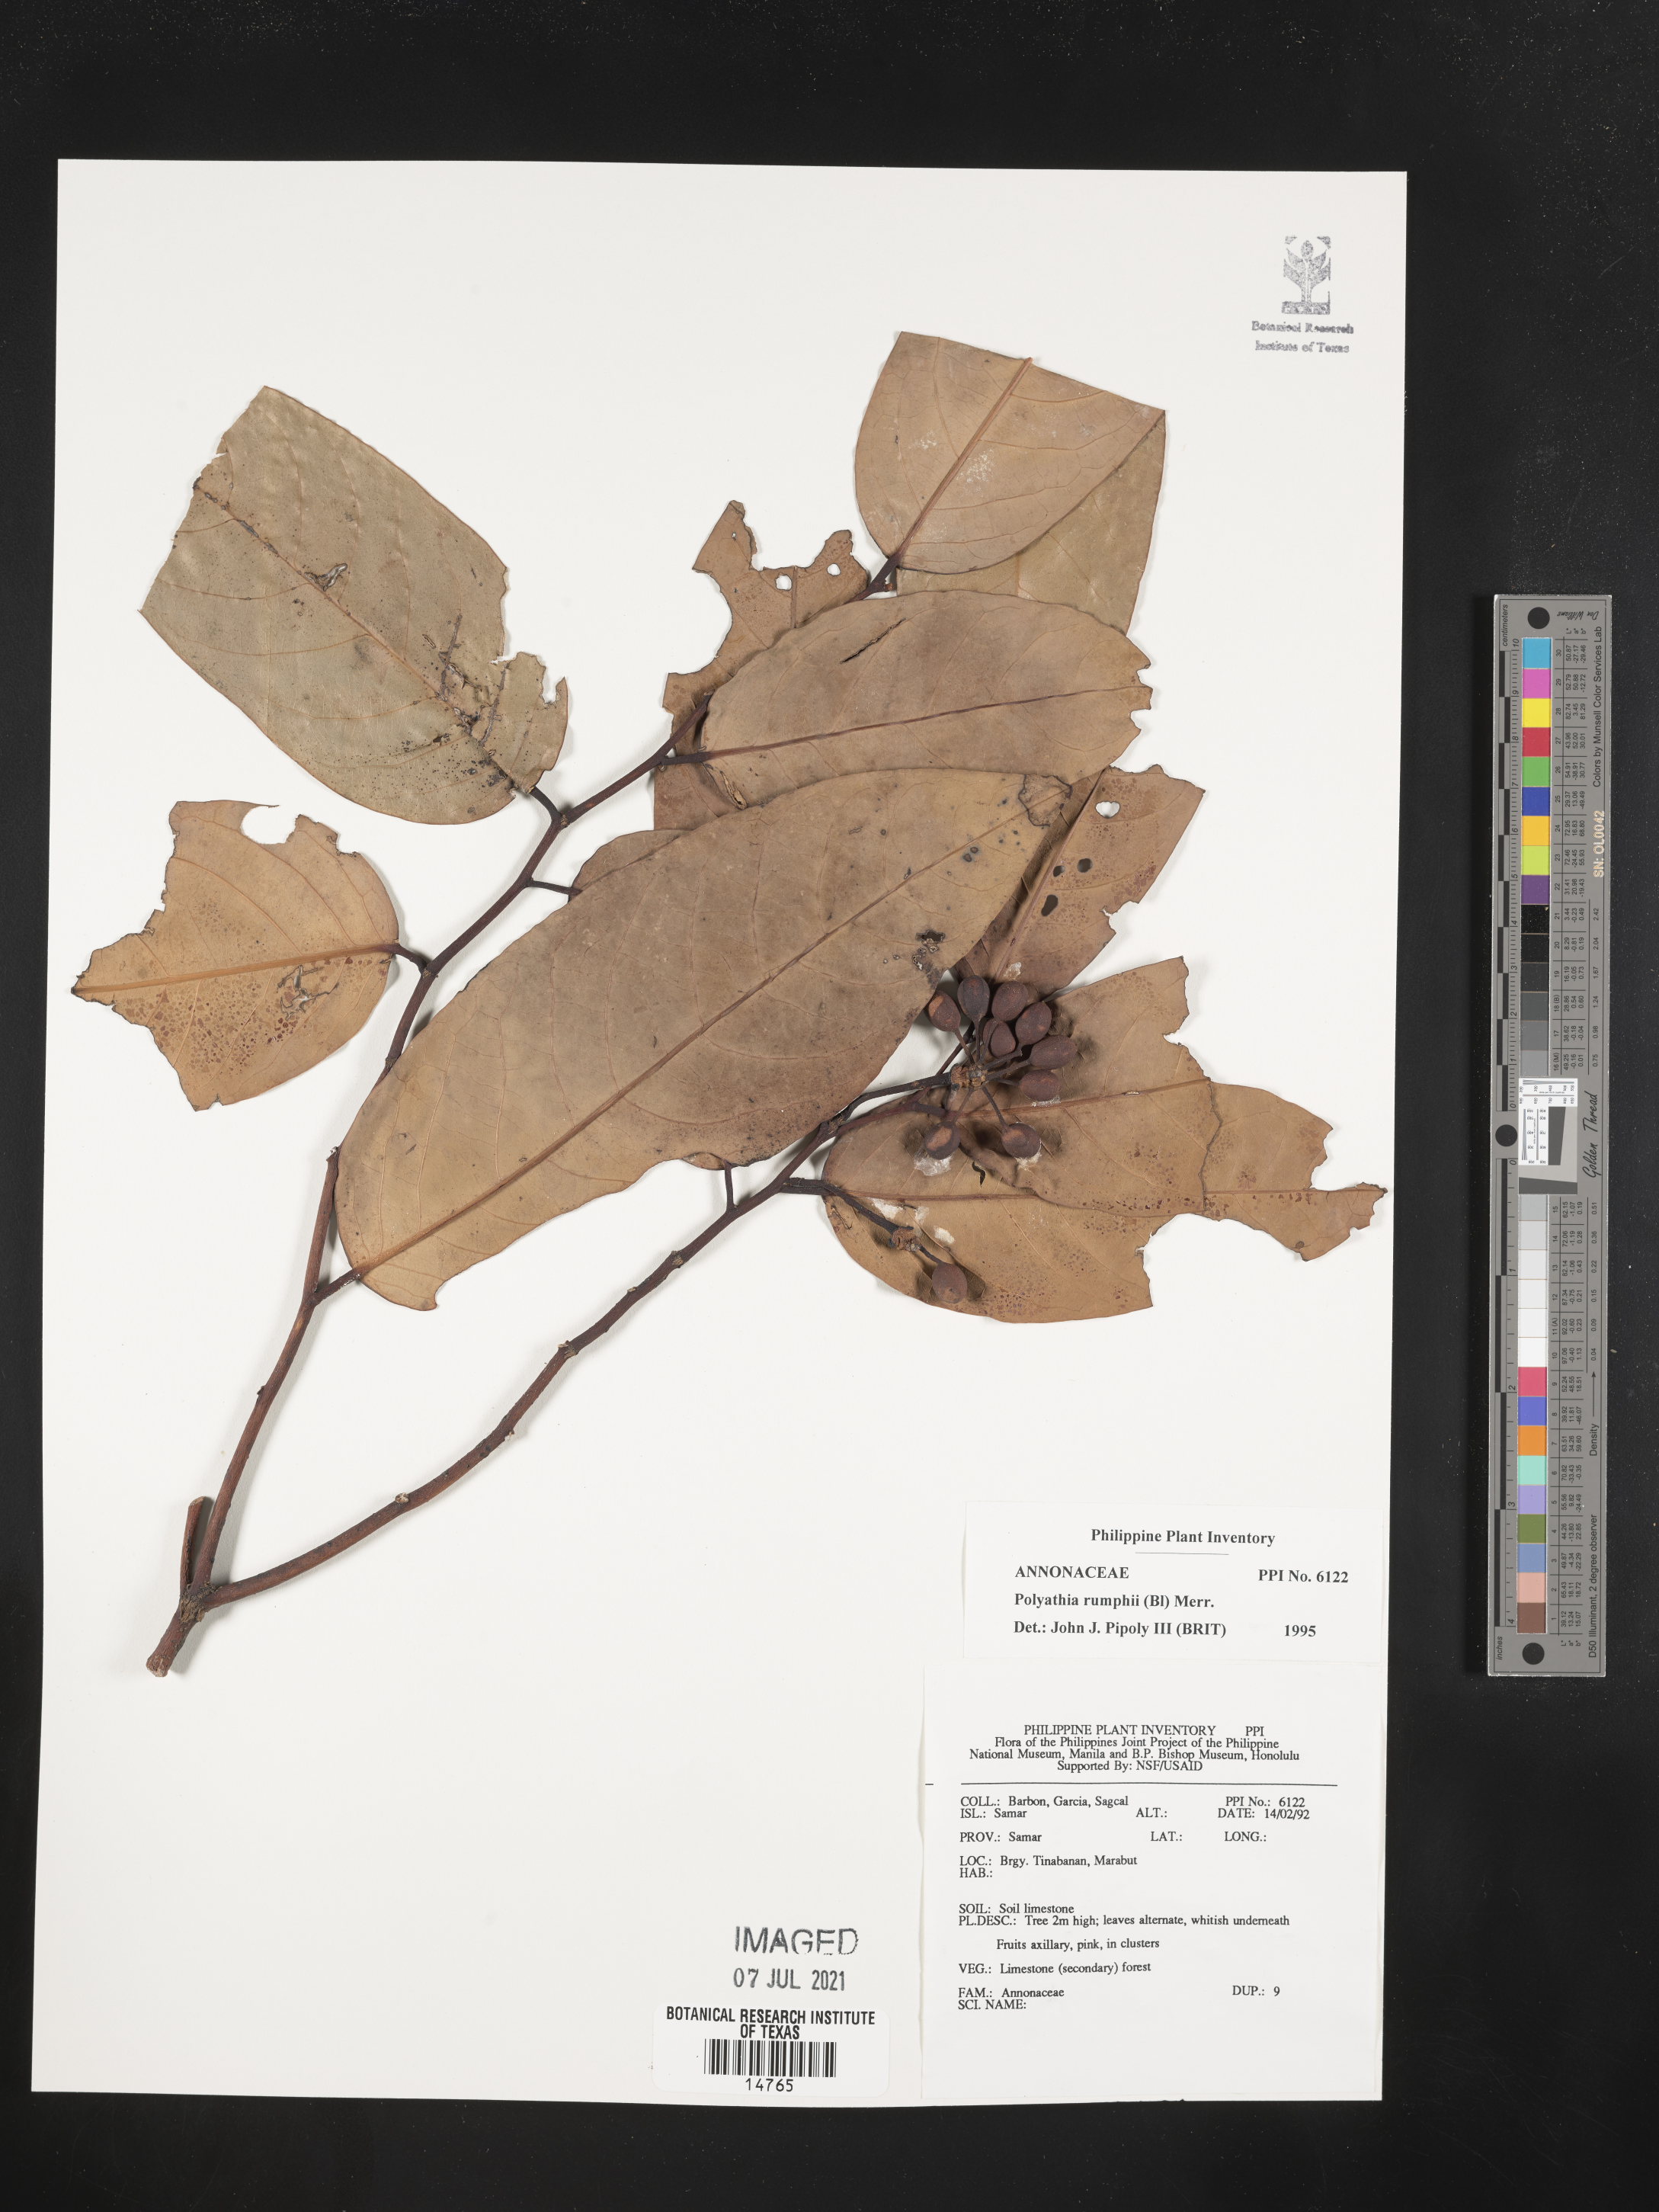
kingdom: Plantae
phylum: Tracheophyta
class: Magnoliopsida
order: Magnoliales
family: Annonaceae
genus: Hubera
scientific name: Hubera rumphii
